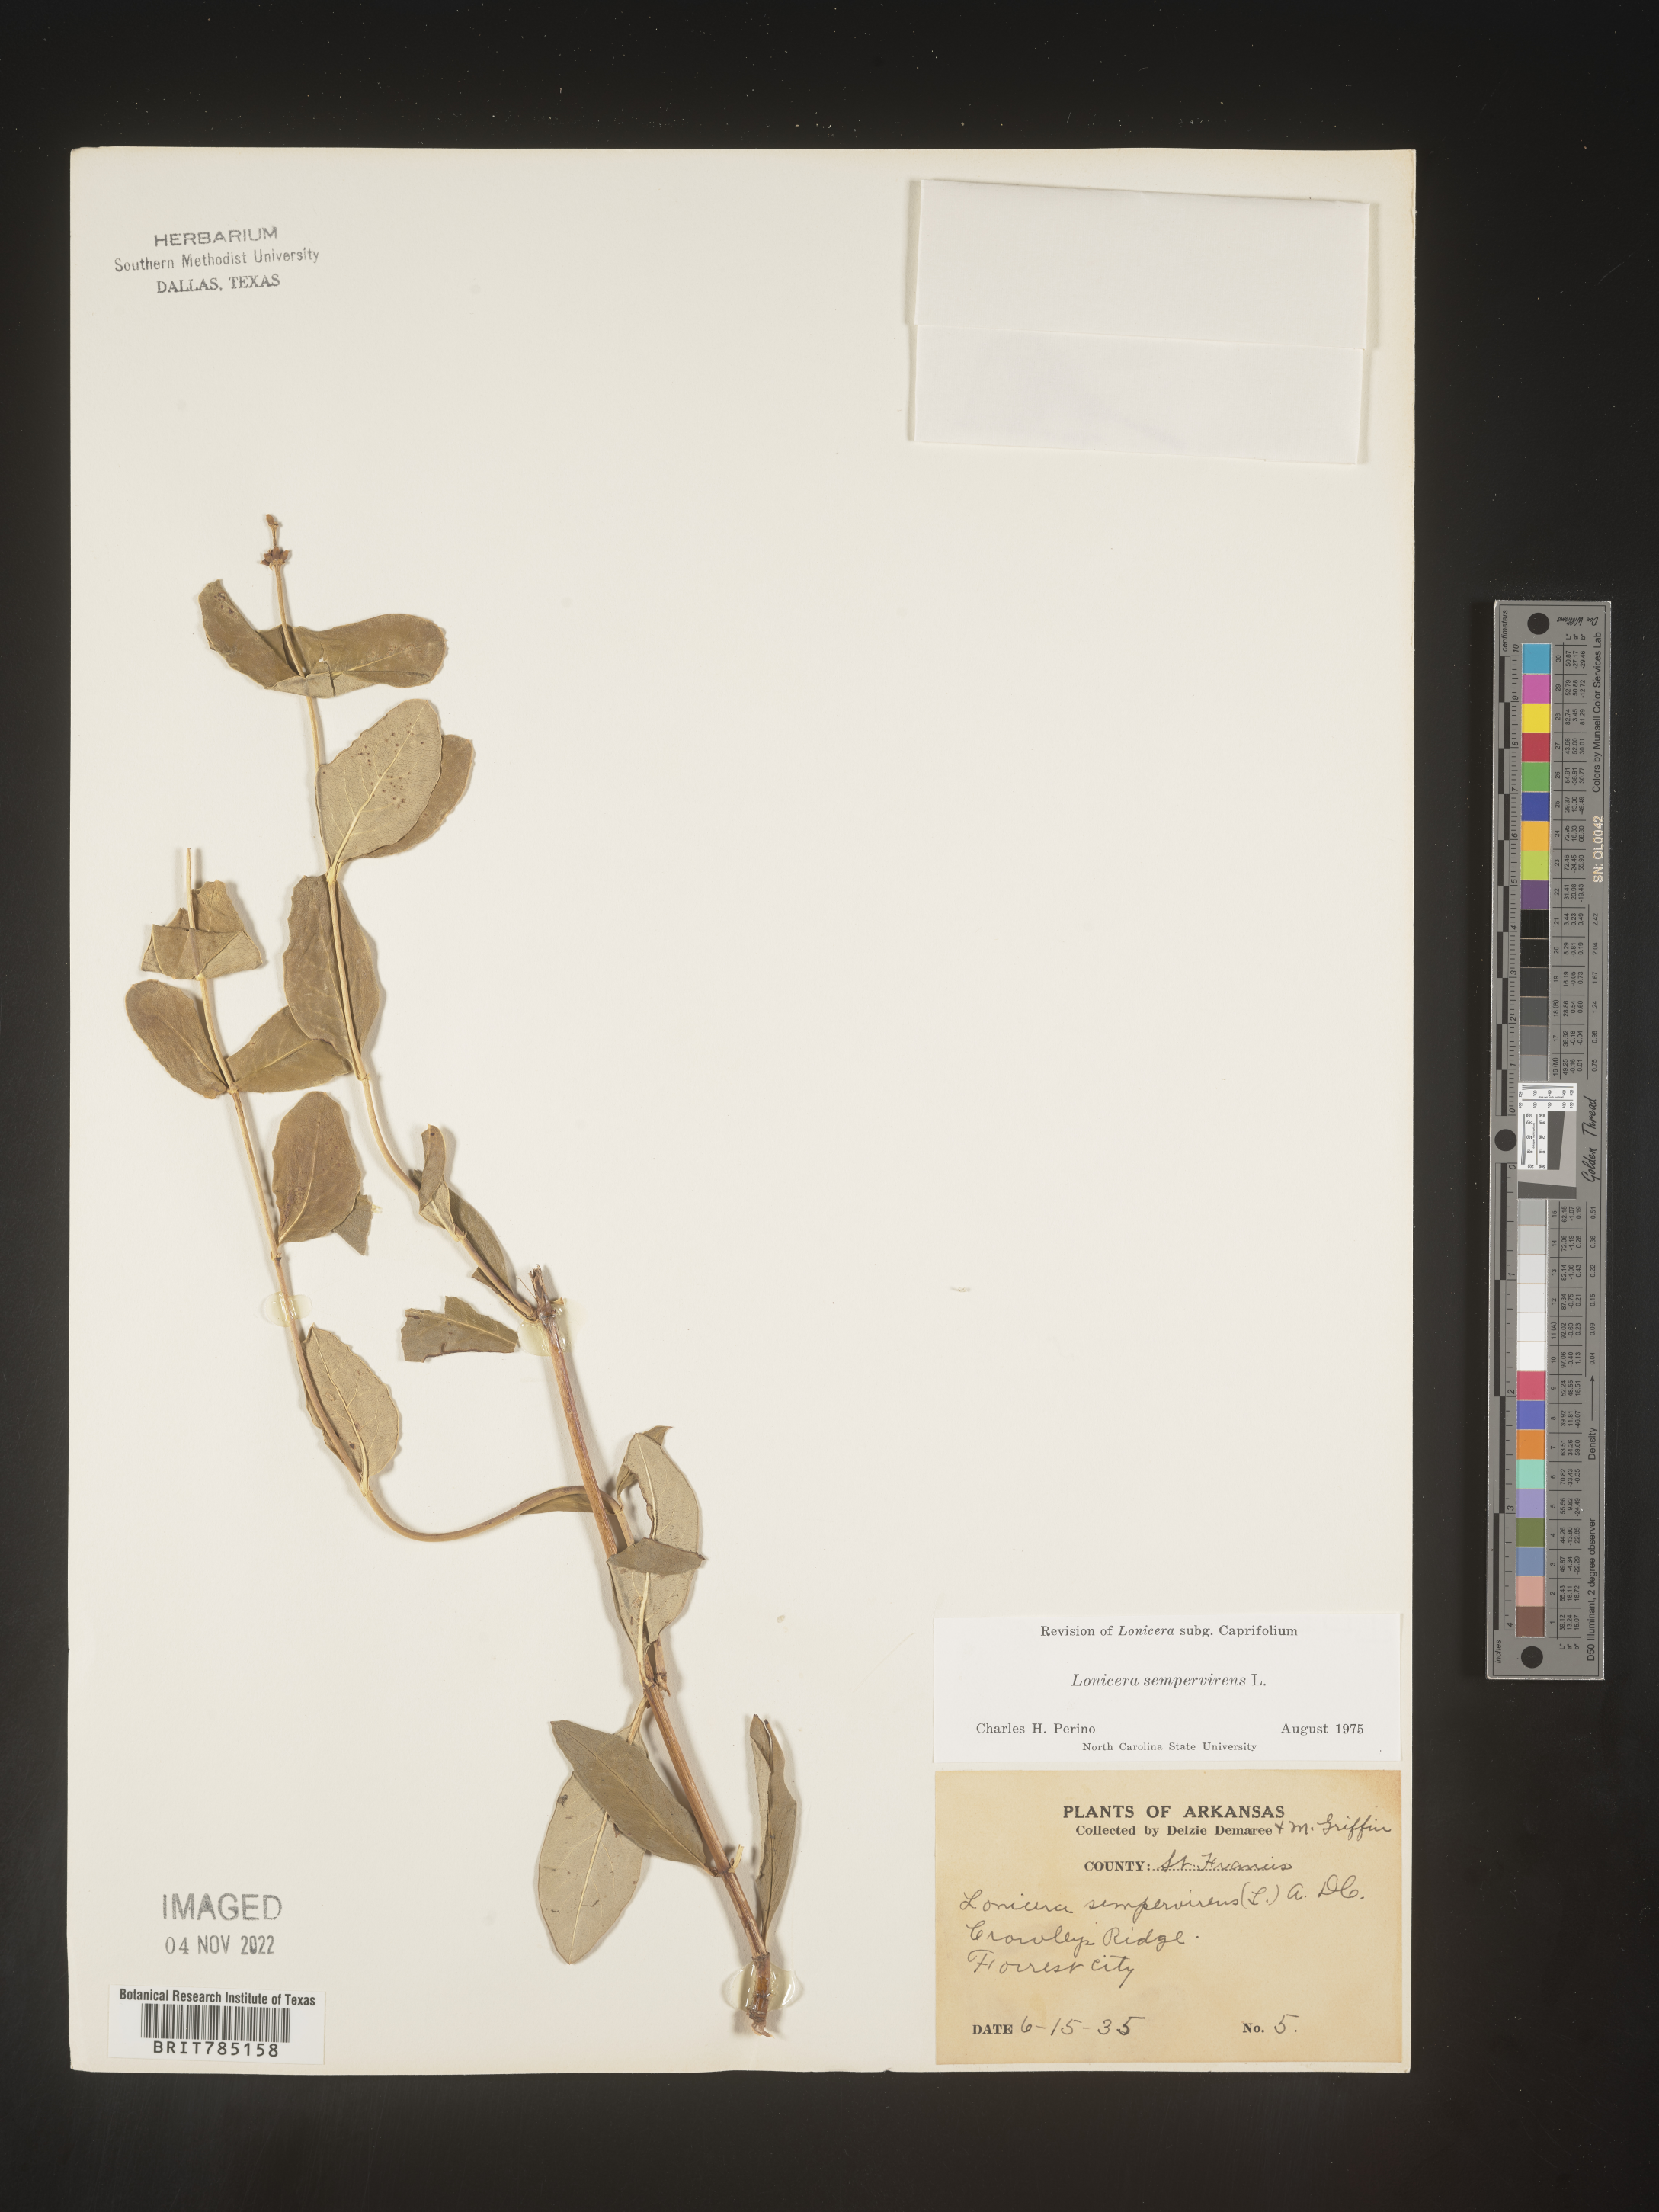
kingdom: Plantae
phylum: Tracheophyta
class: Magnoliopsida
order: Dipsacales
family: Caprifoliaceae
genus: Lonicera
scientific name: Lonicera sempervirens
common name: Coral honeysuckle
